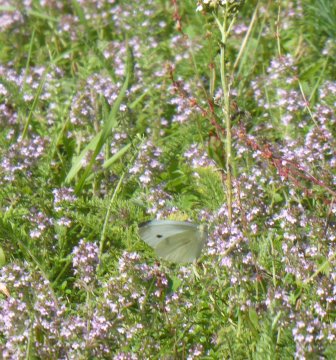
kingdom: Animalia
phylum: Arthropoda
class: Insecta
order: Lepidoptera
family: Pieridae
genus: Pieris
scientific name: Pieris rapae
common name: Cabbage White
